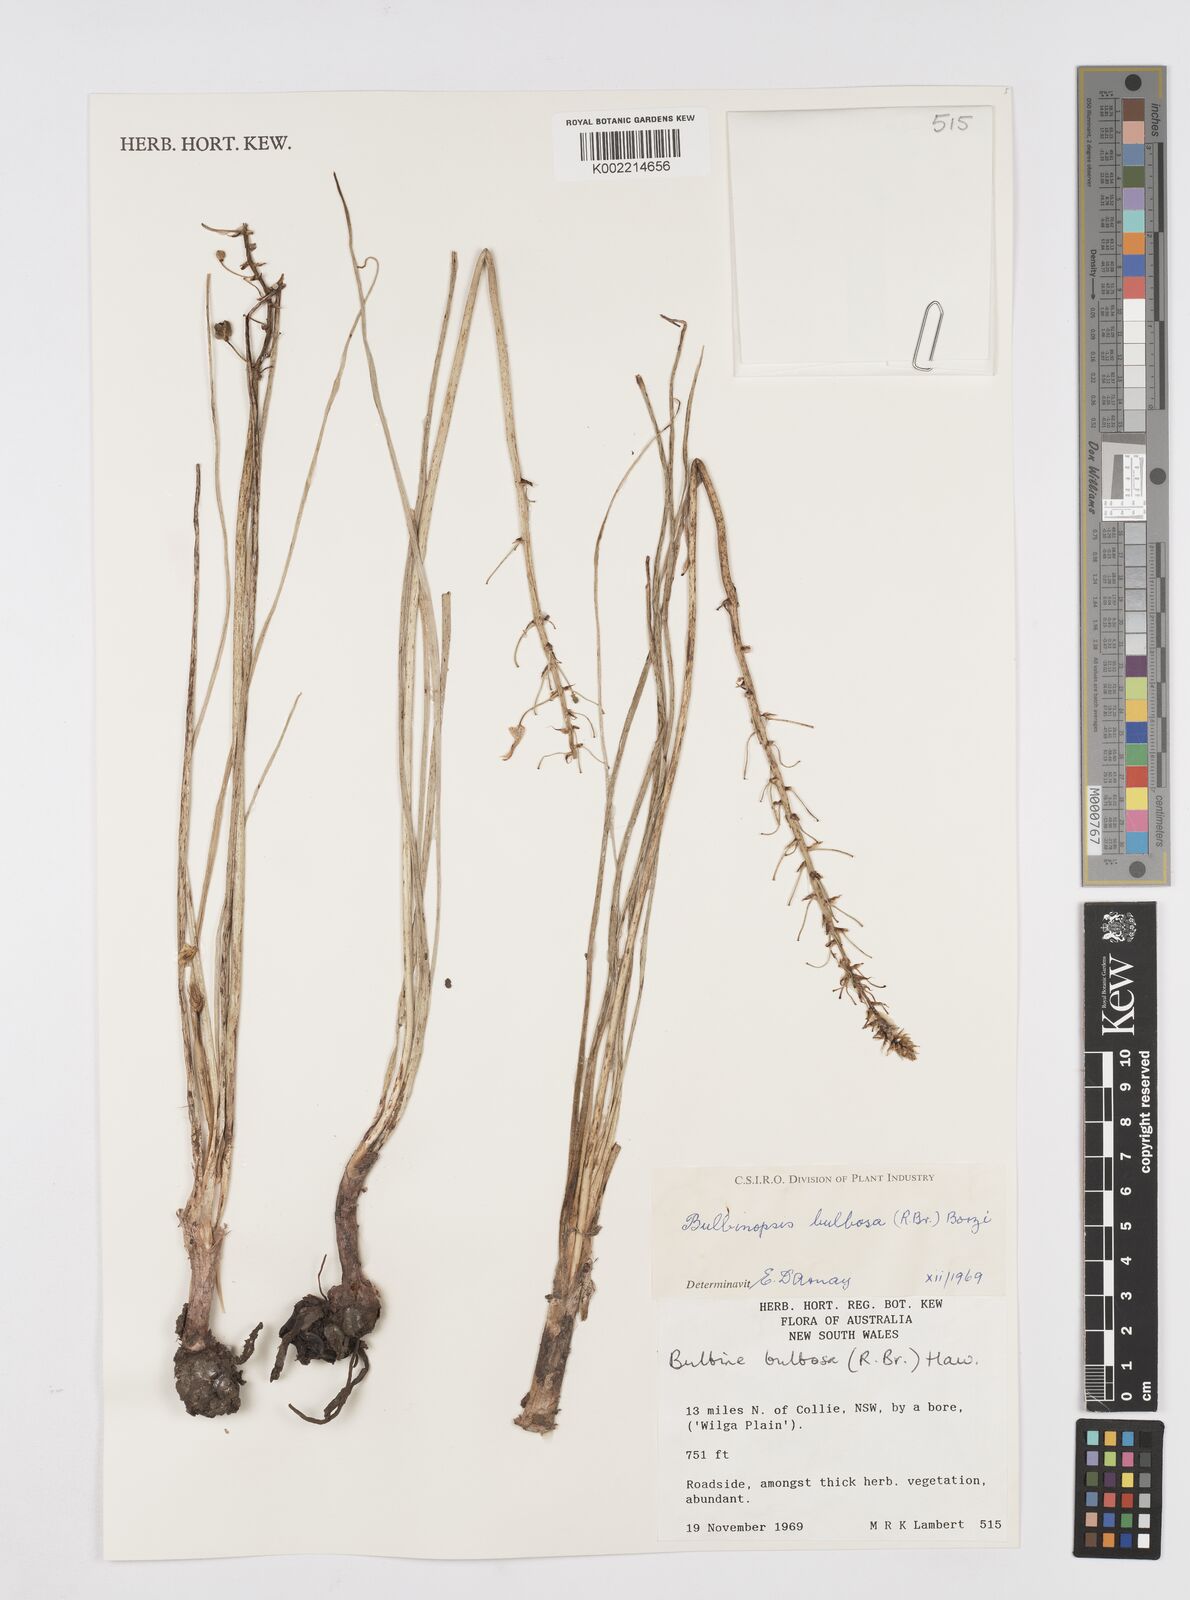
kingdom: Plantae
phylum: Tracheophyta
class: Liliopsida
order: Asparagales
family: Asphodelaceae
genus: Bulbine
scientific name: Bulbine bulbosa
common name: Golden-lily
